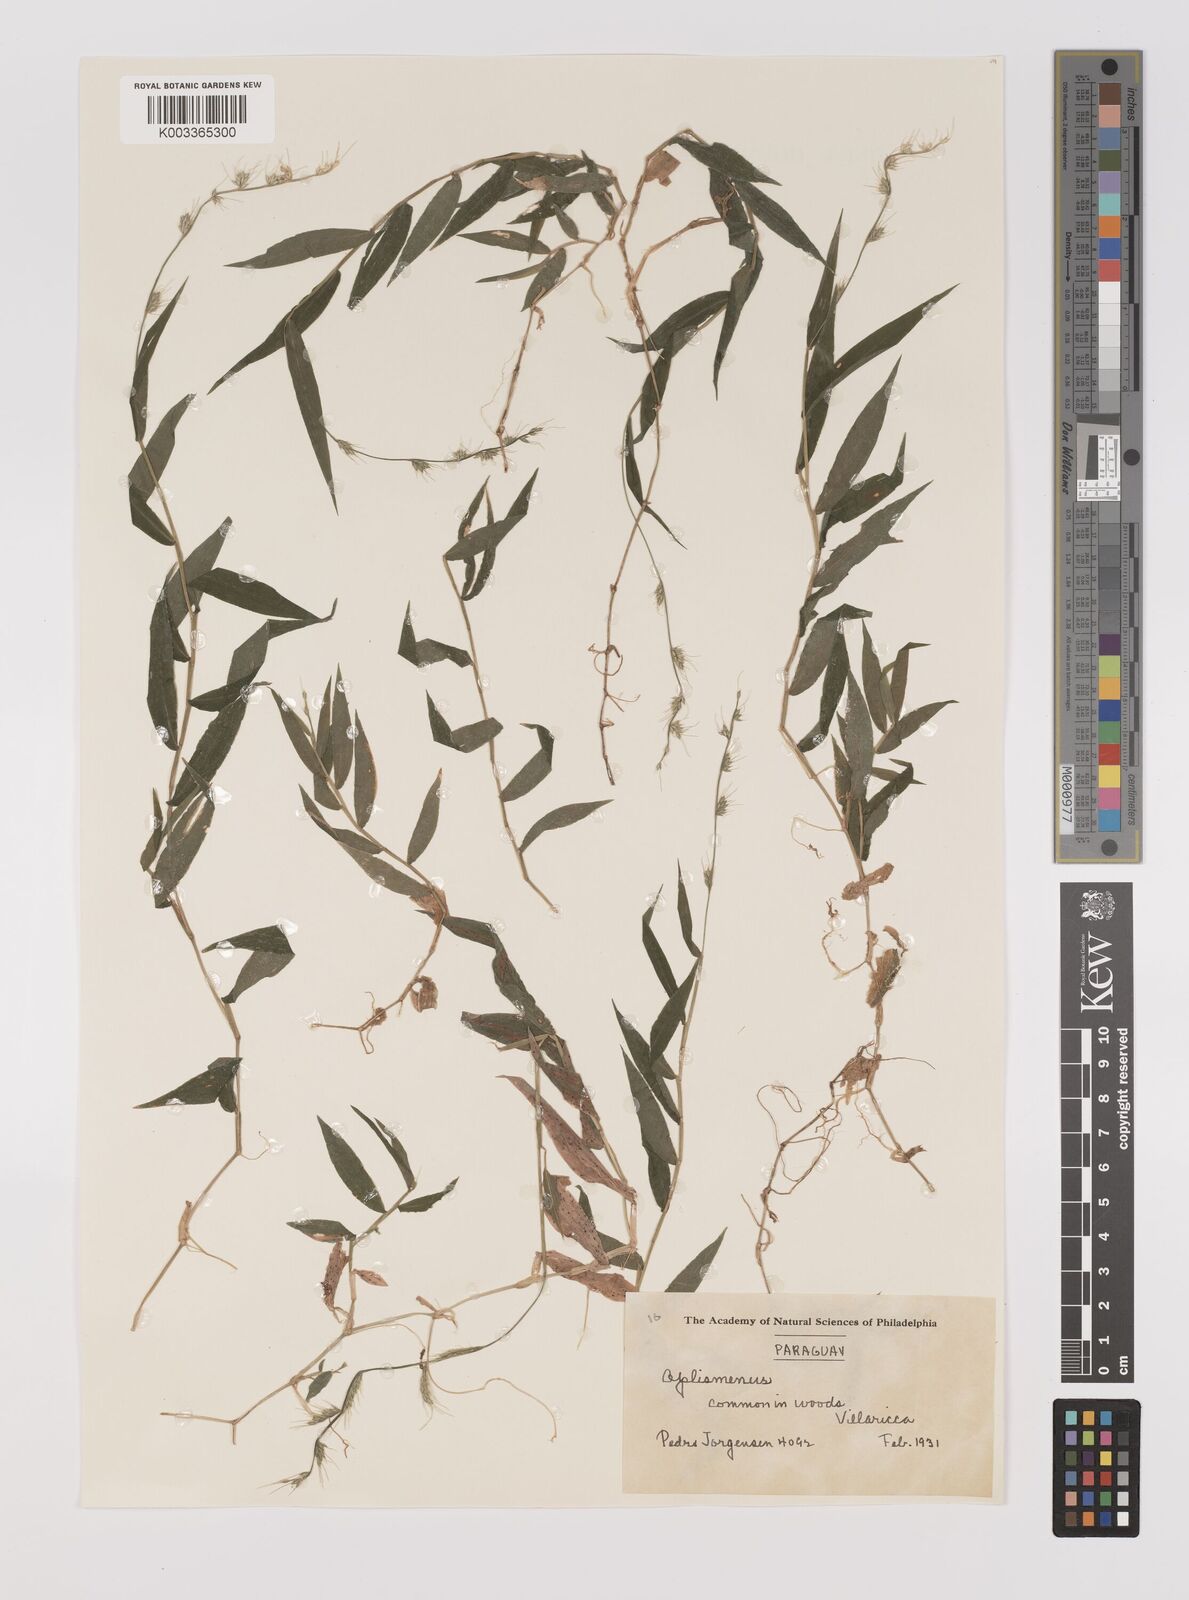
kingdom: Plantae
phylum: Tracheophyta
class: Liliopsida
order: Poales
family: Poaceae
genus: Oplismenus
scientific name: Oplismenus hirtellus
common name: Basketgrass
